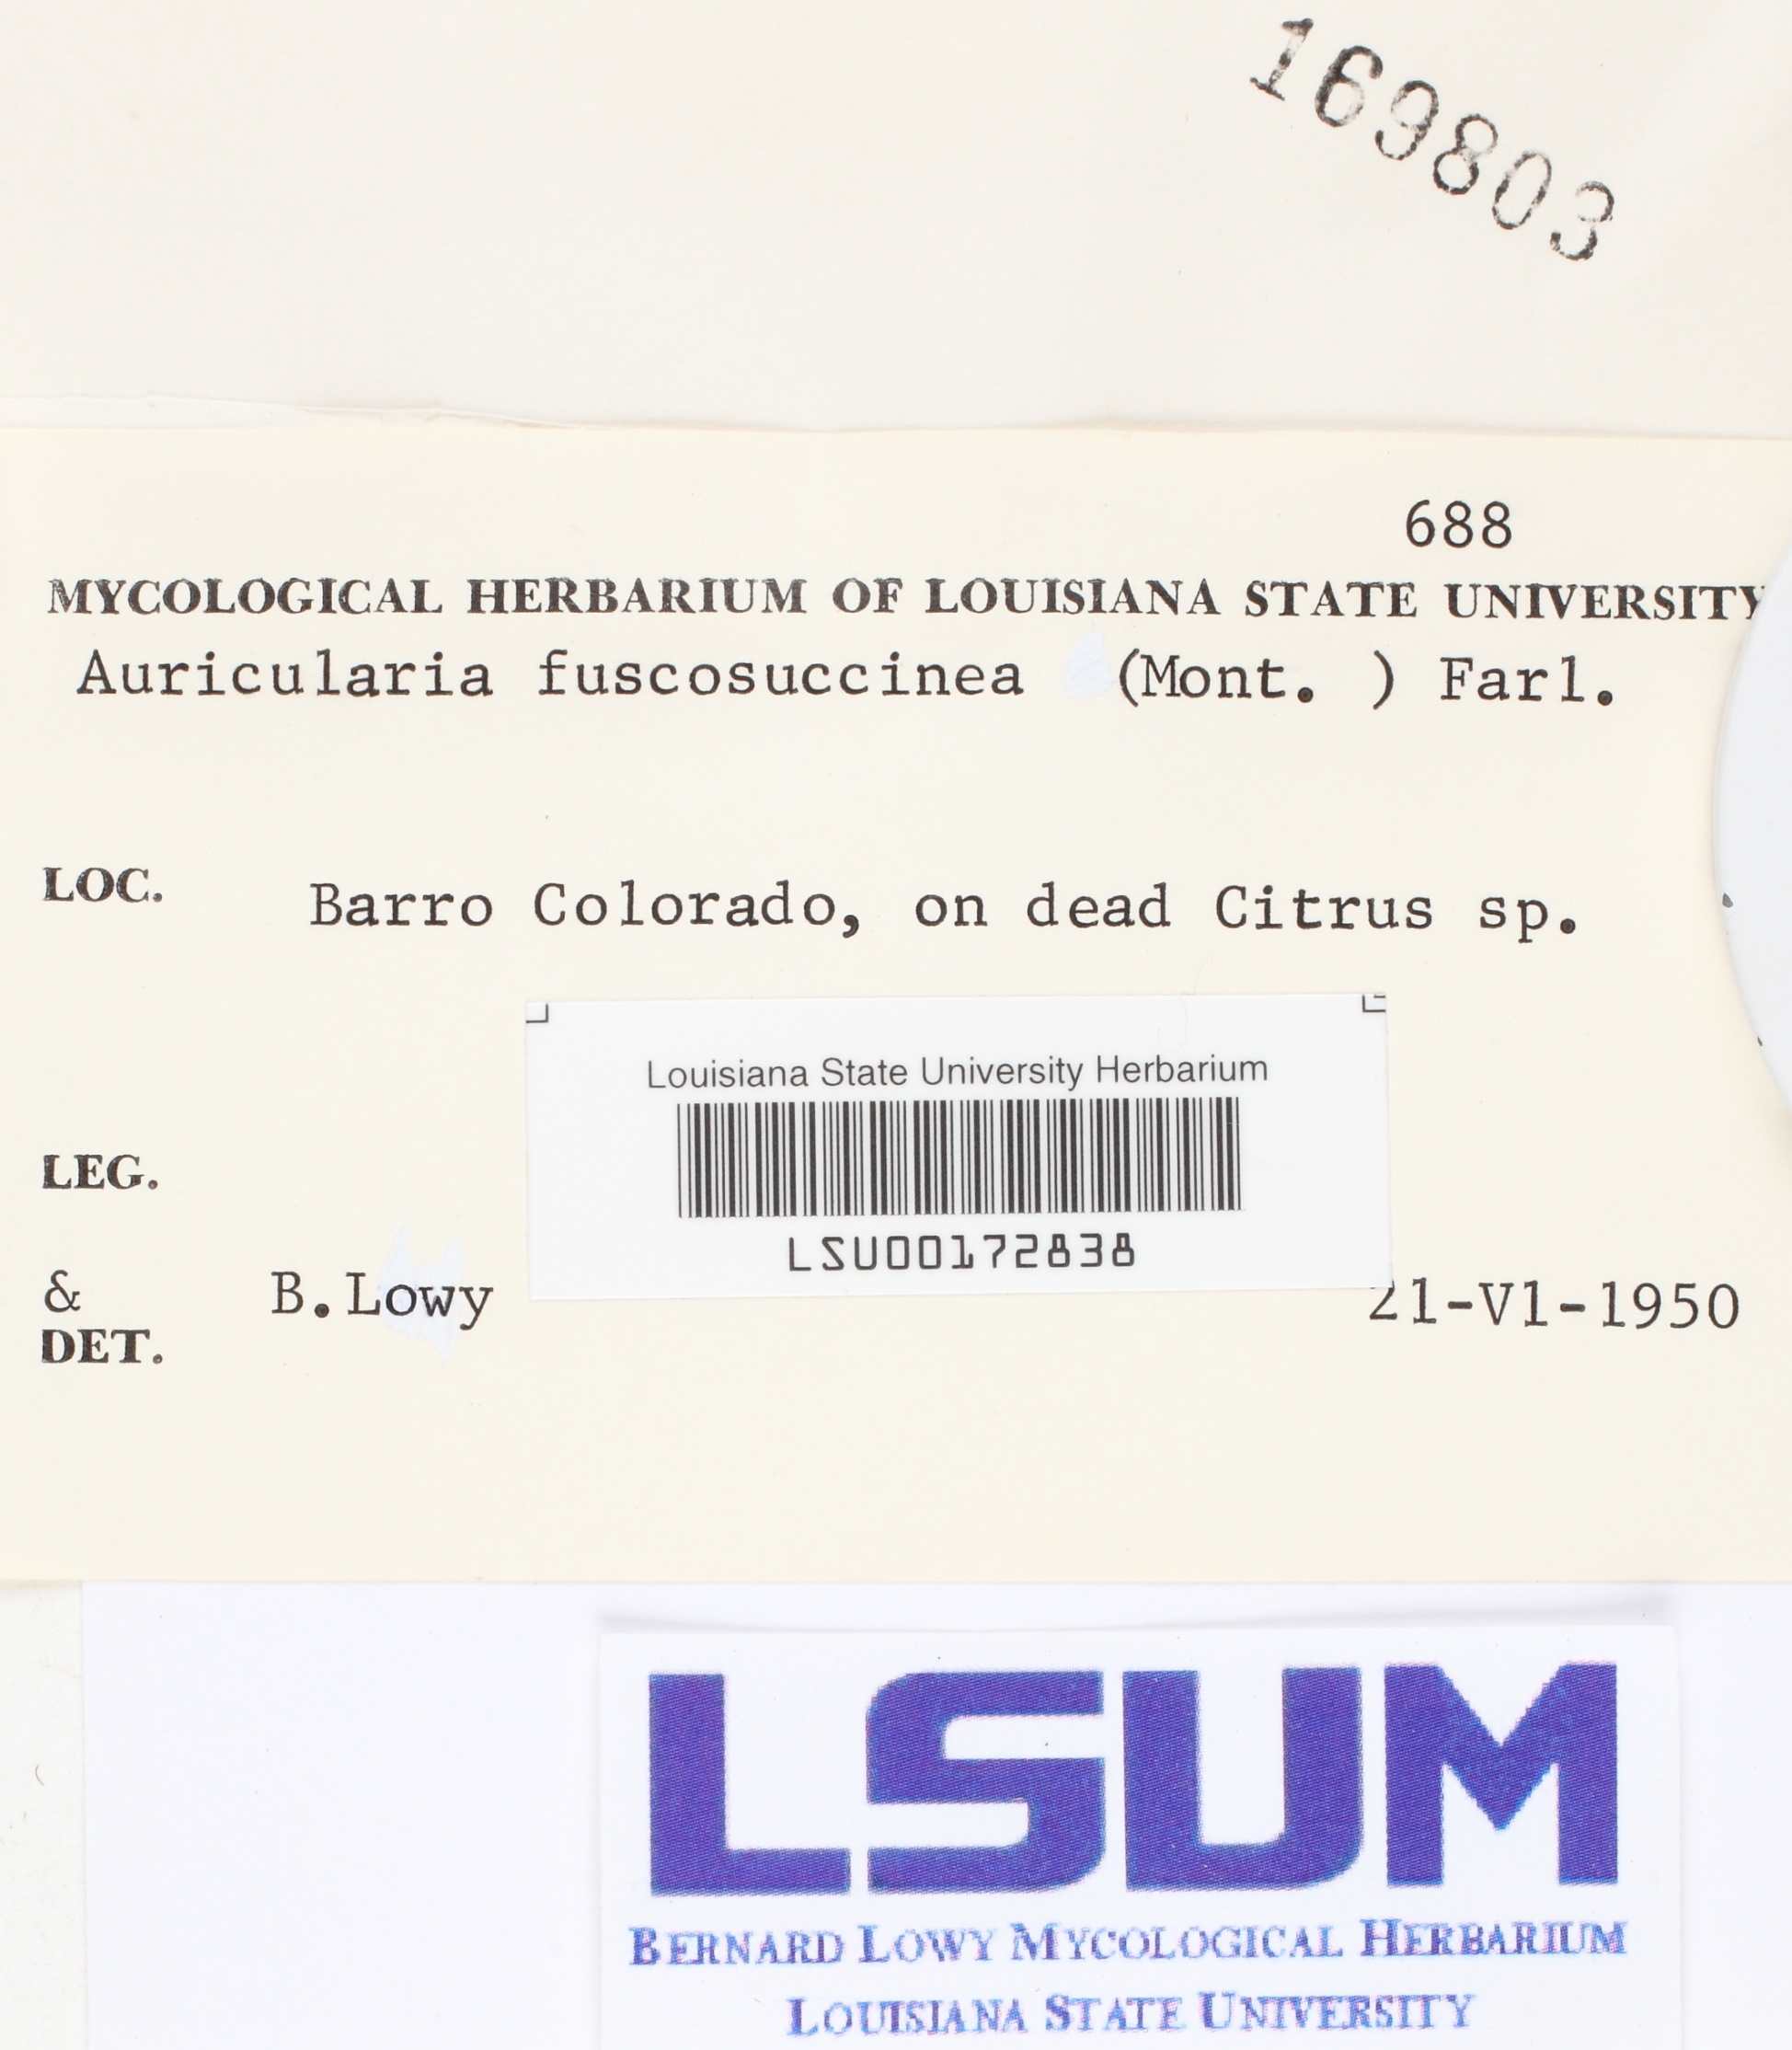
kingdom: Fungi
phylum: Basidiomycota
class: Agaricomycetes
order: Auriculariales
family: Auriculariaceae
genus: Auricularia
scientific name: Auricularia fuscosuccinea
